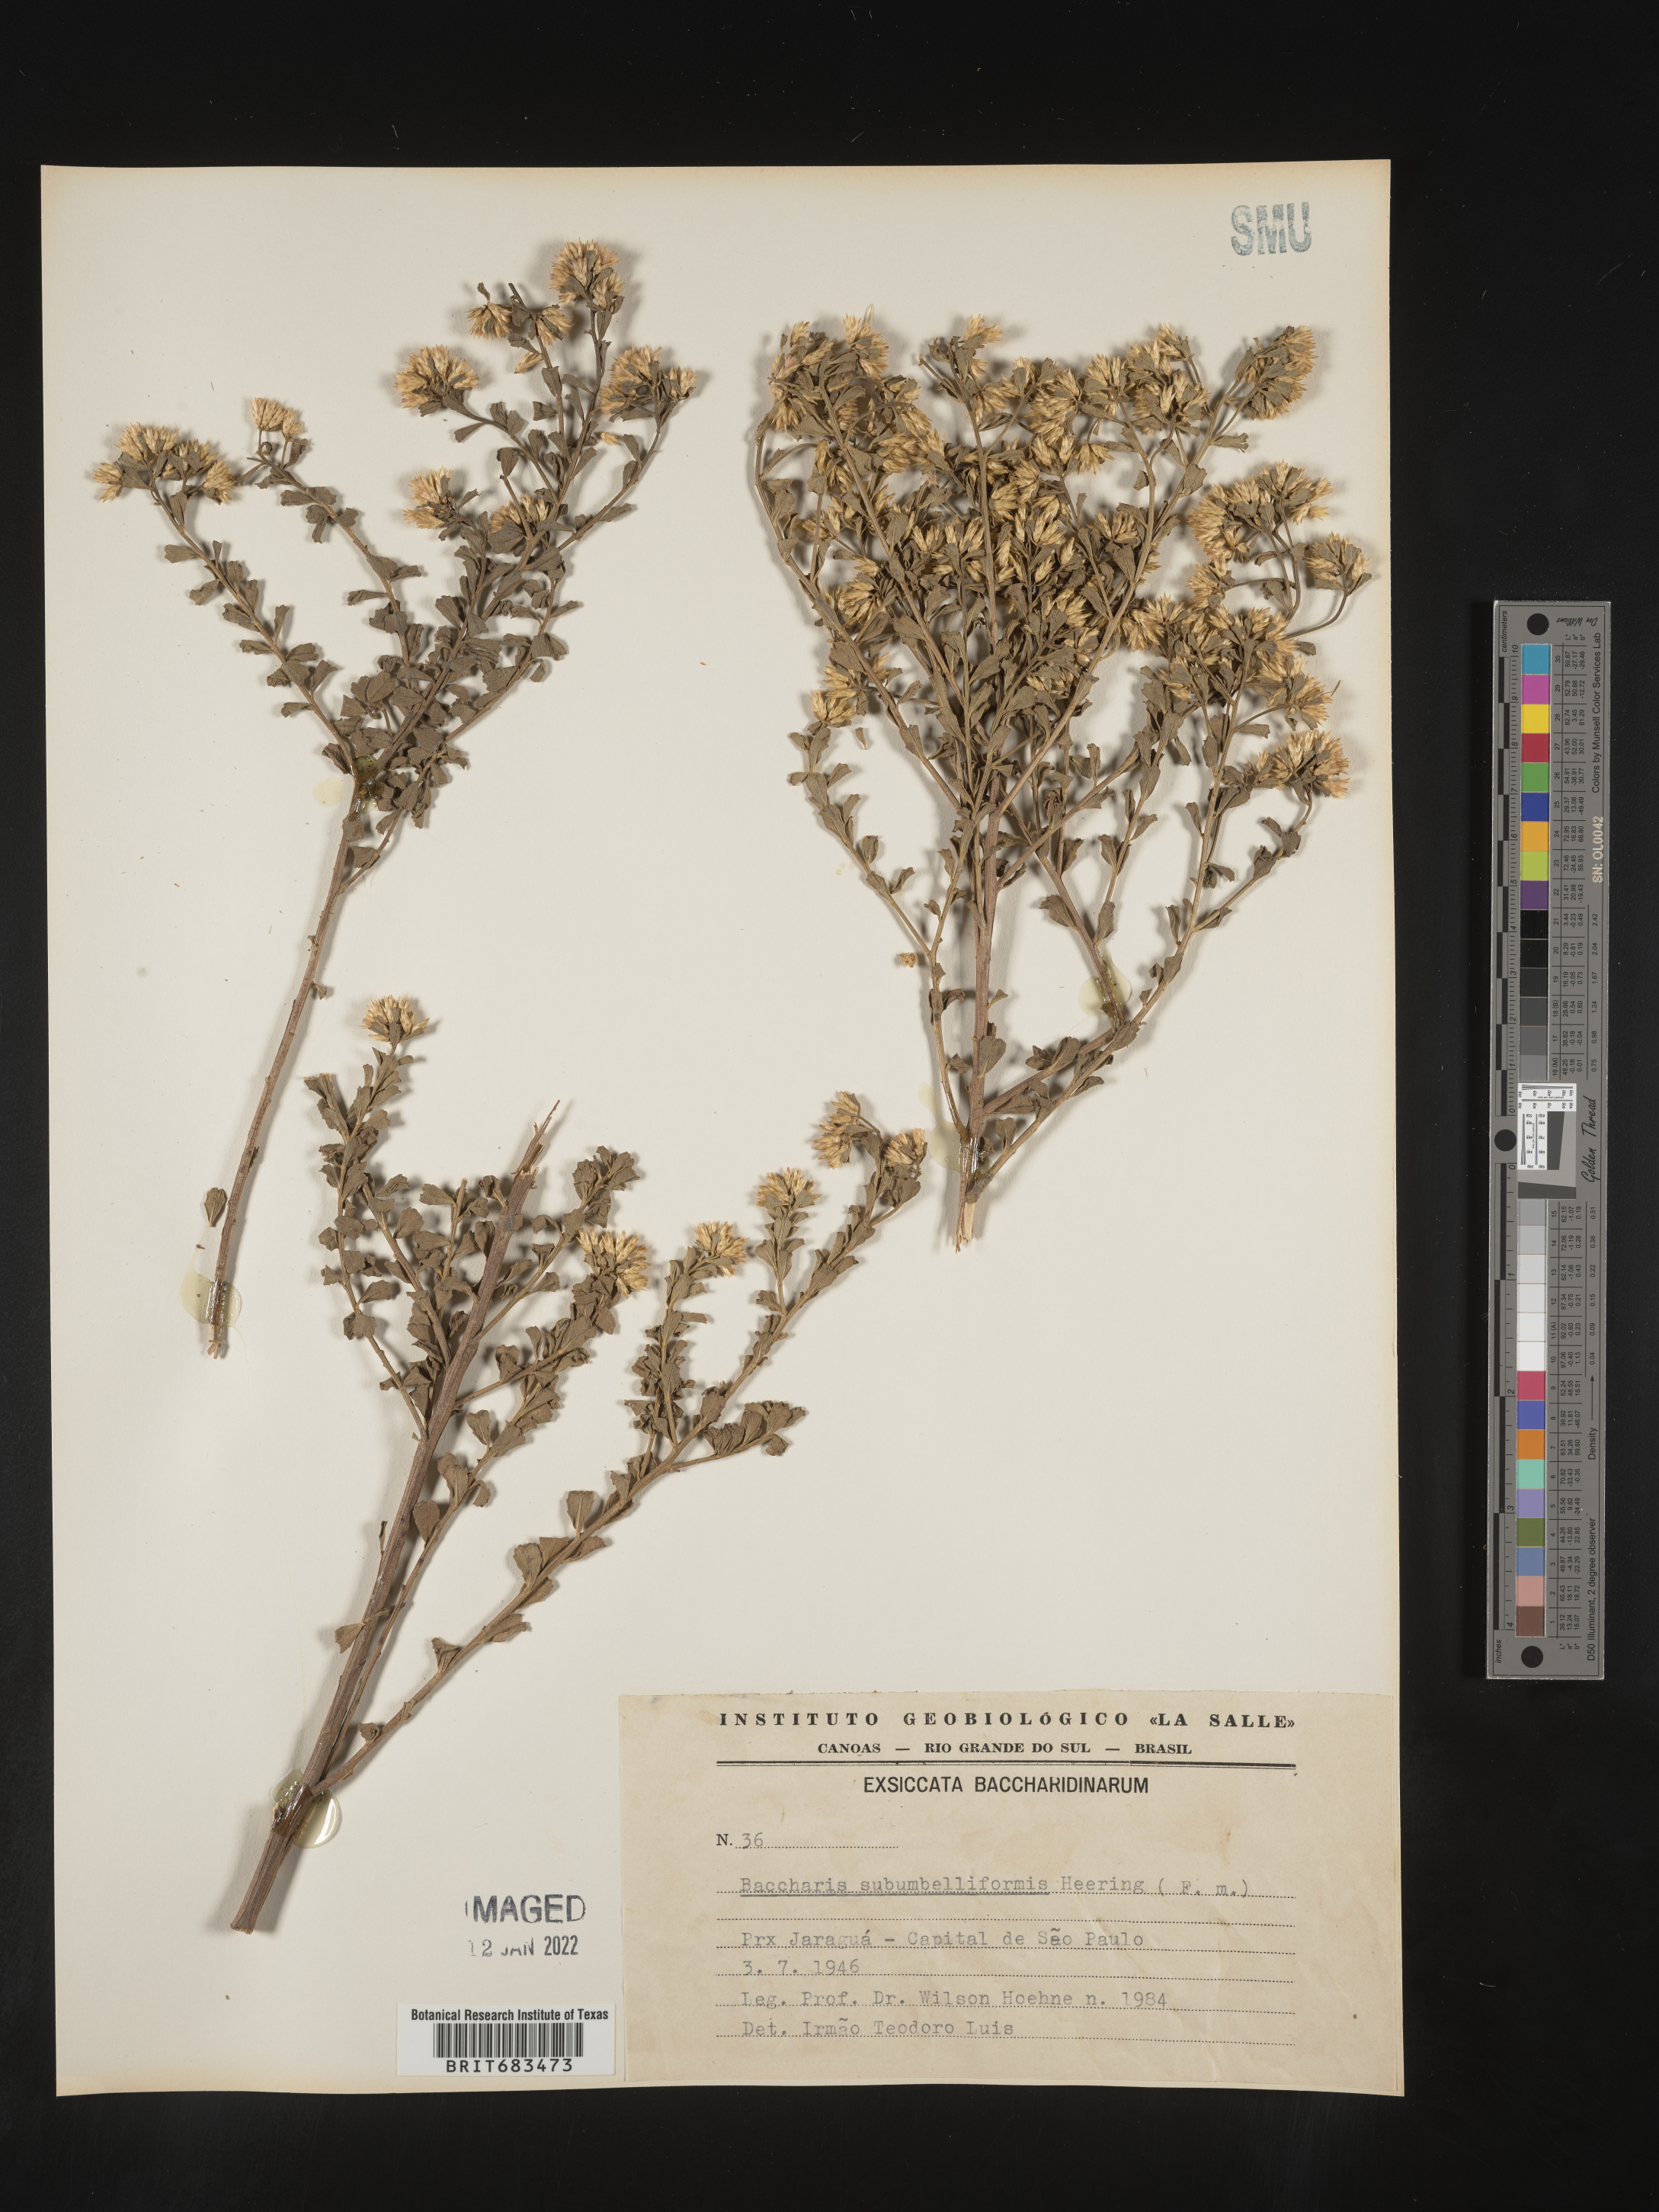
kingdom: Plantae
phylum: Tracheophyta
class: Magnoliopsida
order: Asterales
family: Asteraceae
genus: Baccharis
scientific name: Baccharis
